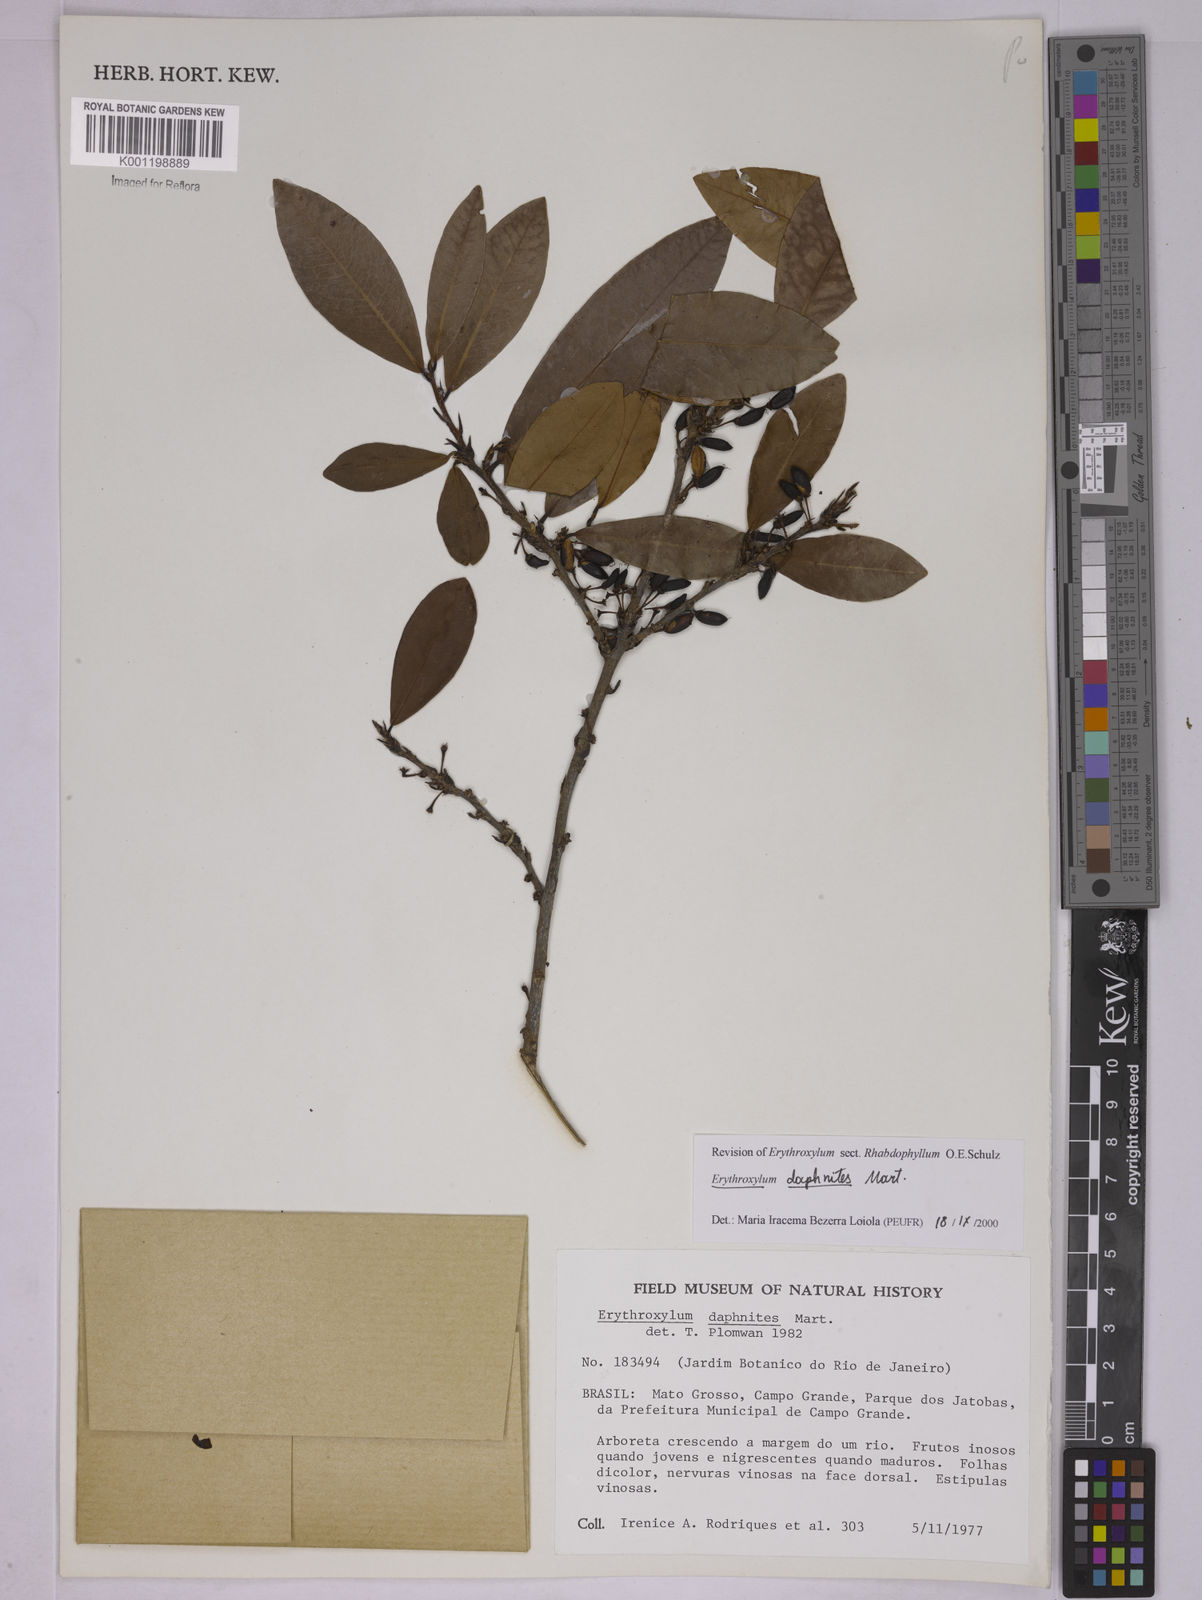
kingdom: Plantae
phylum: Tracheophyta
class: Magnoliopsida
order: Malpighiales
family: Erythroxylaceae
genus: Erythroxylum
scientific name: Erythroxylum daphnites
